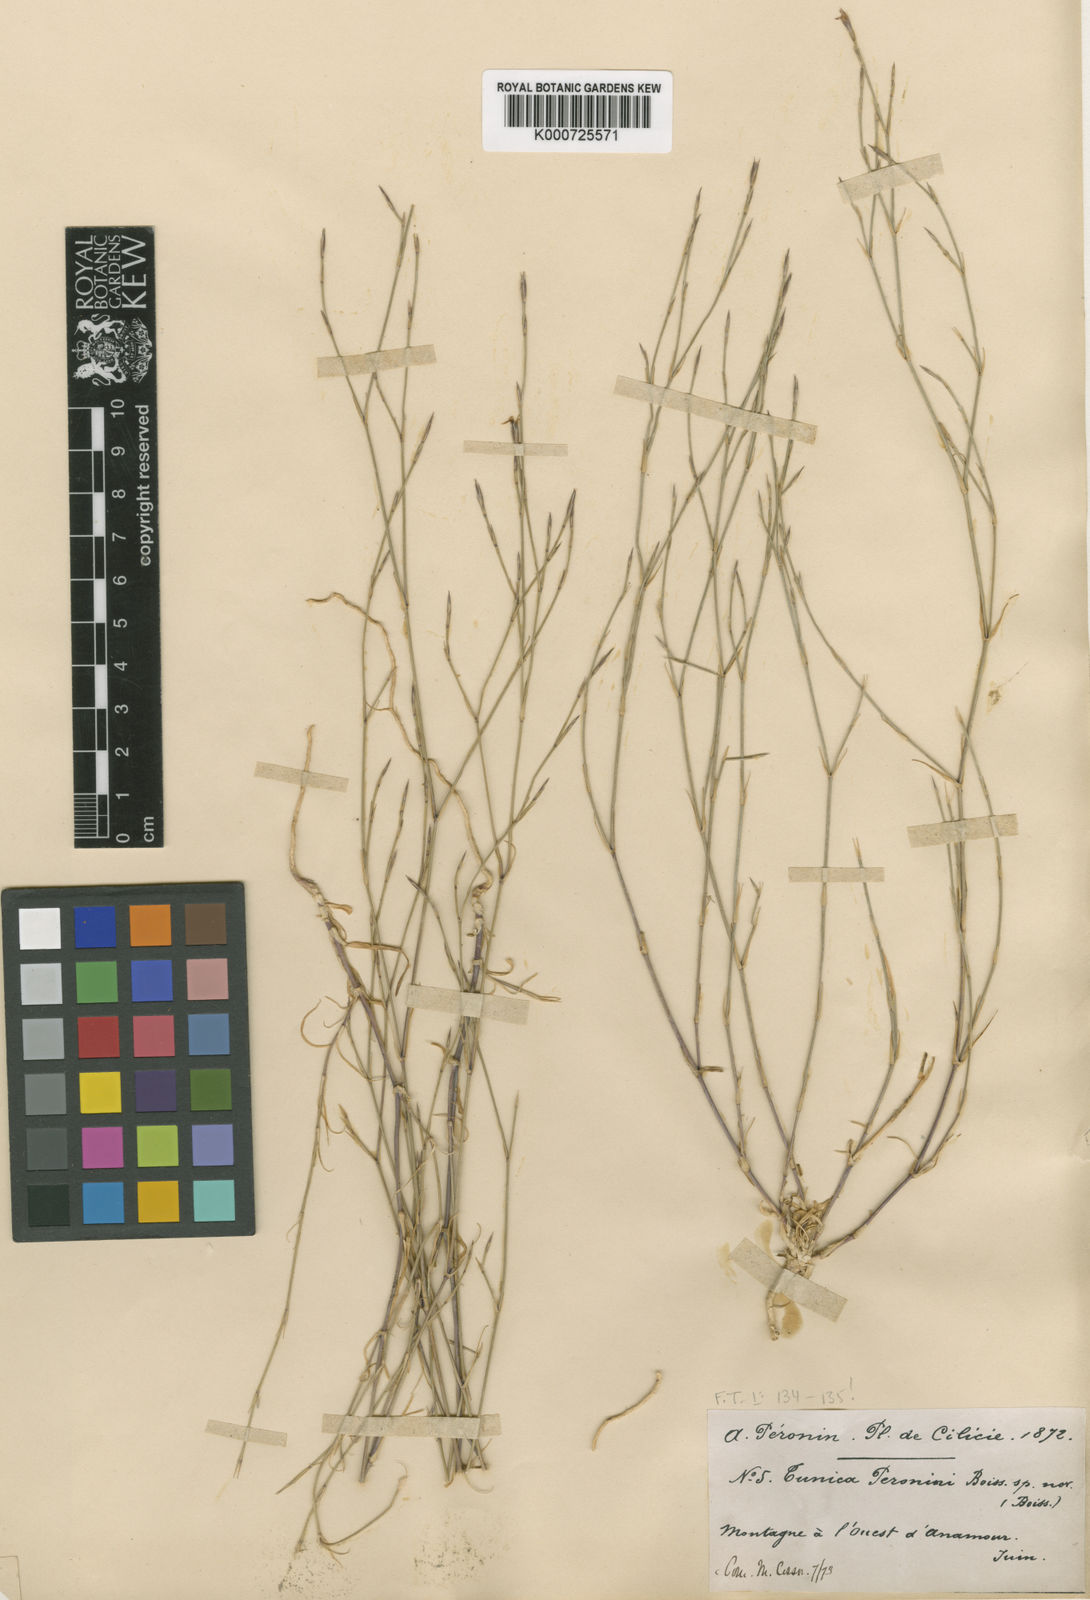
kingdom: Plantae
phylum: Tracheophyta
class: Magnoliopsida
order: Caryophyllales
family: Caryophyllaceae
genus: Petrorhagia
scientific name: Petrorhagia peroninii
